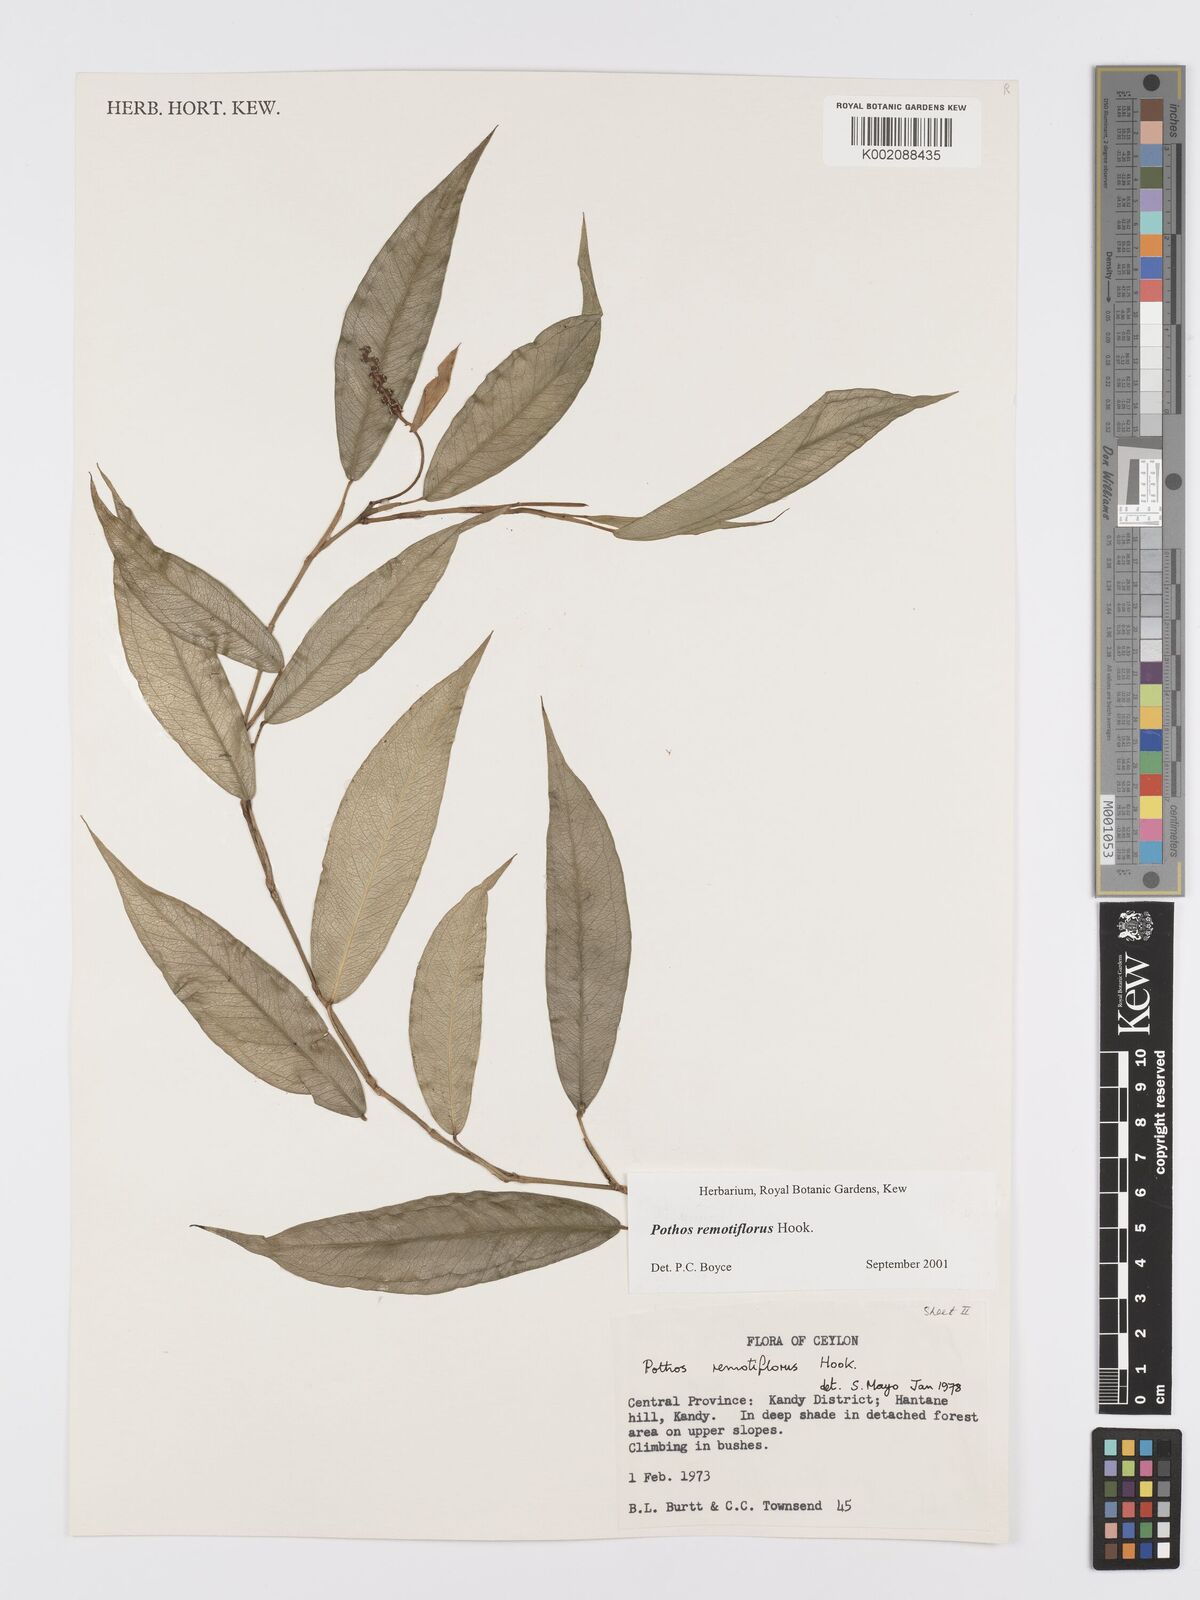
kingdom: Plantae
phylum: Tracheophyta
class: Liliopsida
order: Alismatales
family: Araceae
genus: Pothos
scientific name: Pothos remotiflorus
